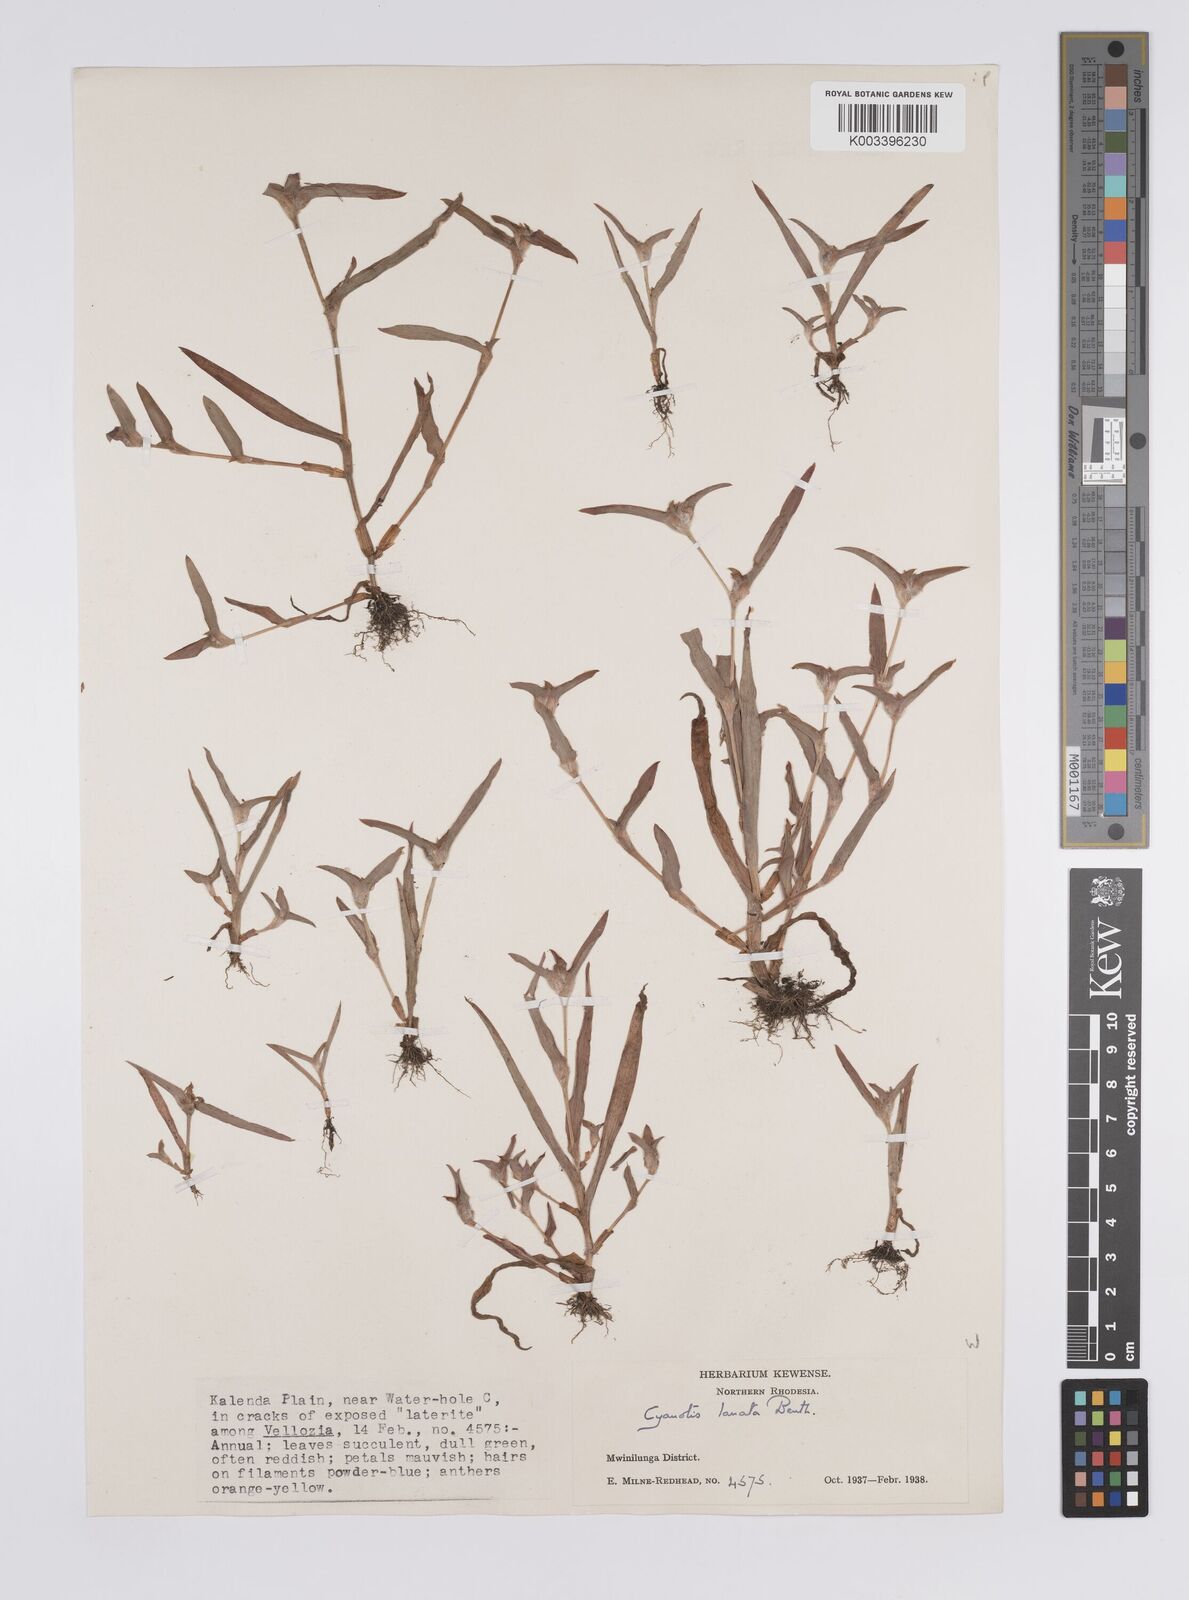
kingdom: Plantae
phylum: Tracheophyta
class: Liliopsida
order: Commelinales
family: Commelinaceae
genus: Cyanotis
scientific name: Cyanotis lanata
